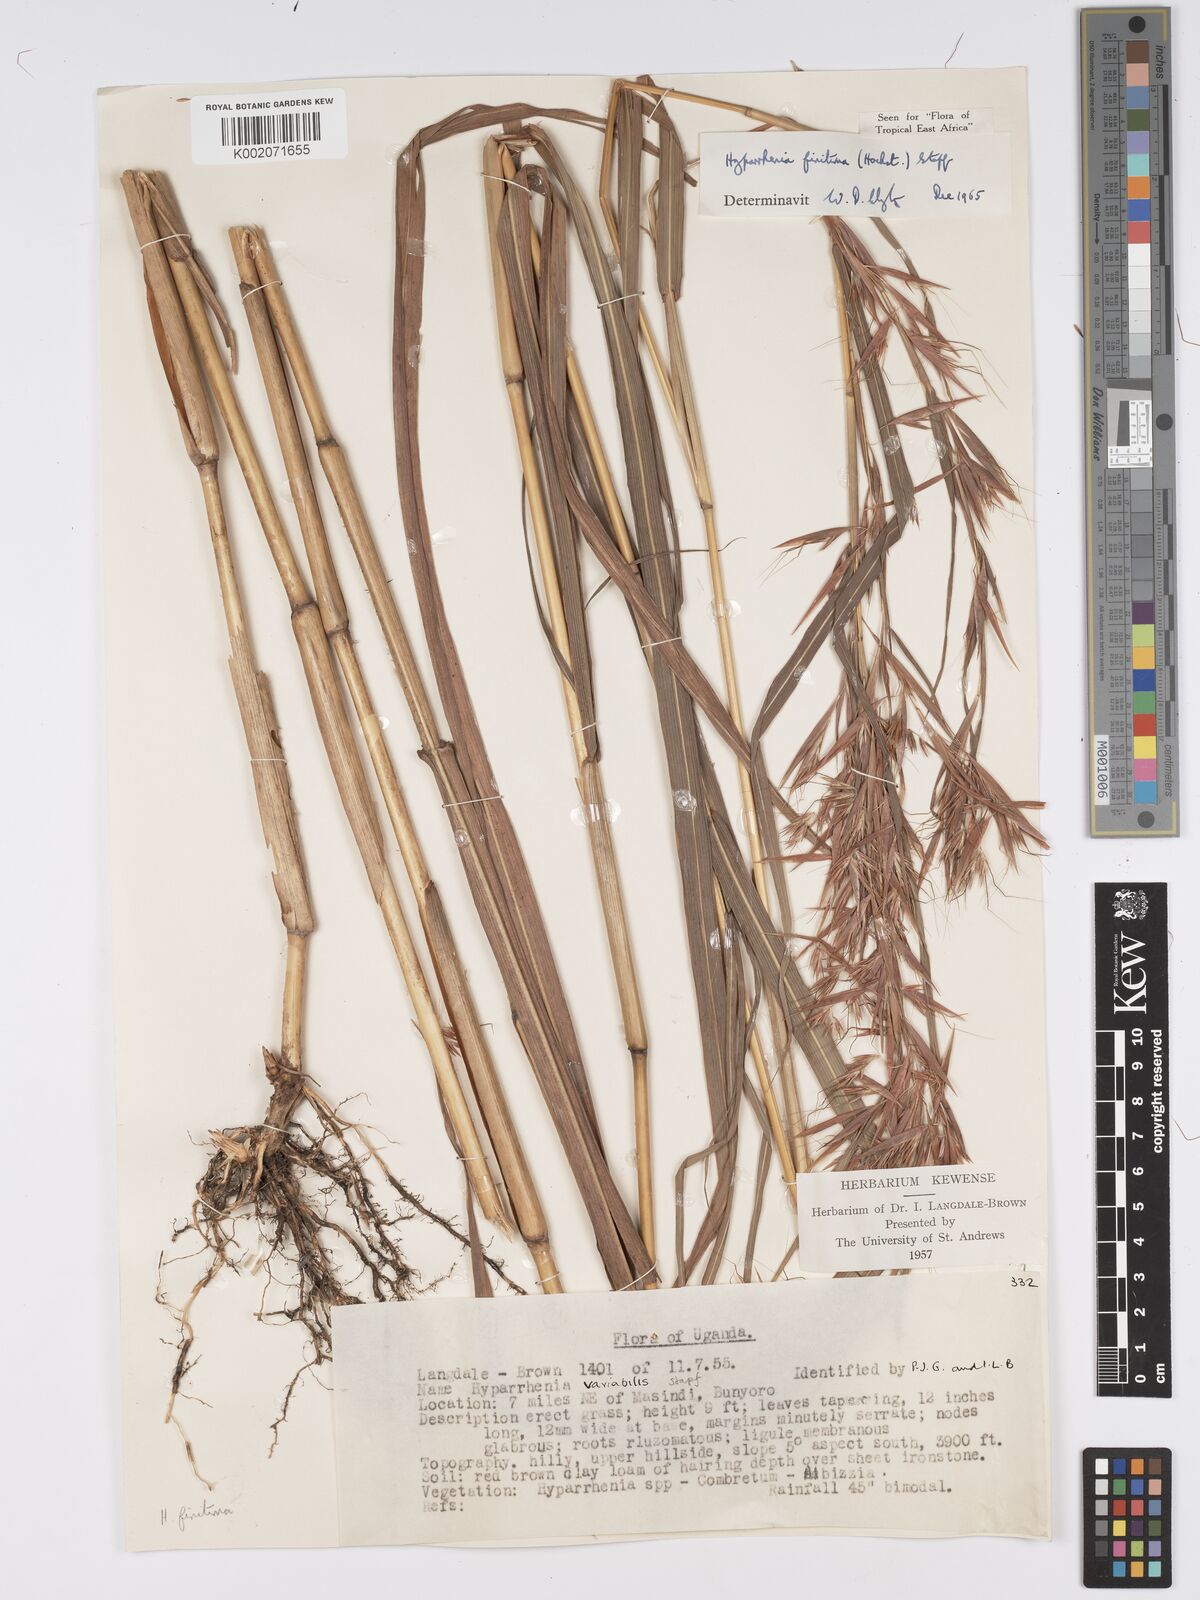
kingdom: Plantae
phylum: Tracheophyta
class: Liliopsida
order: Poales
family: Poaceae
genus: Hyparrhenia
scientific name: Hyparrhenia finitima
